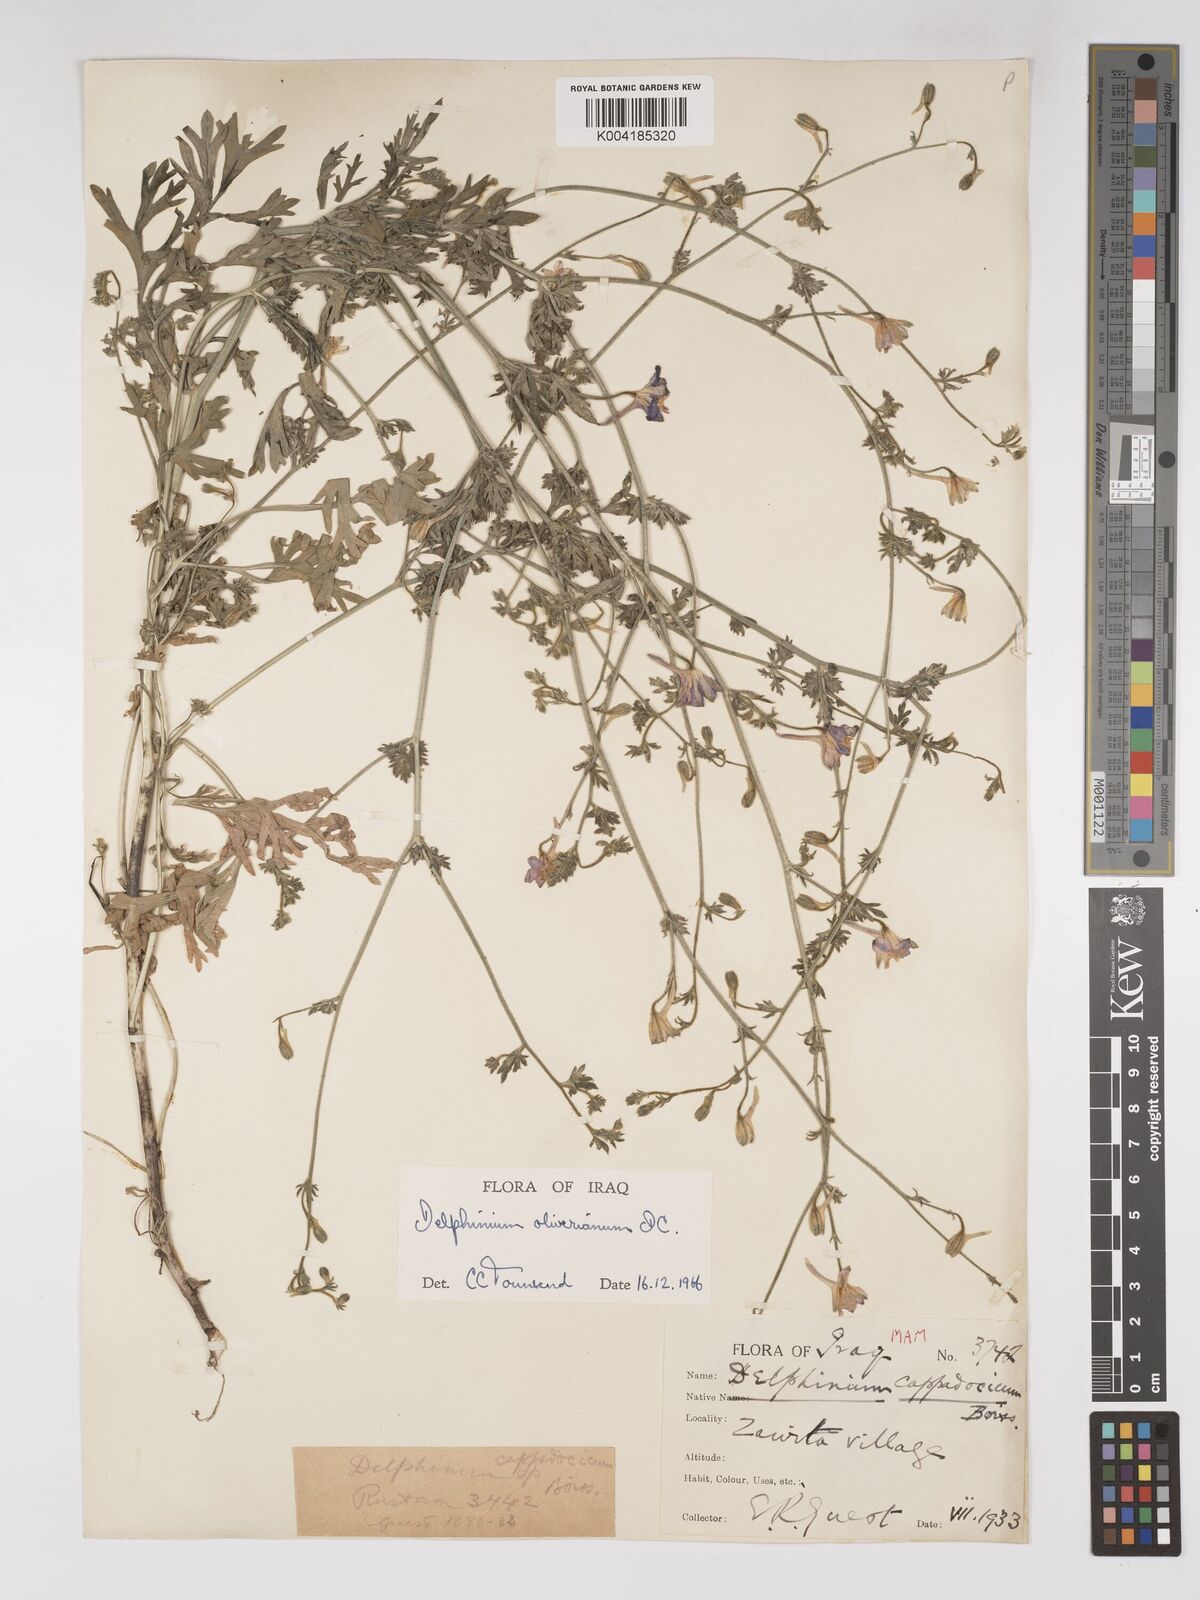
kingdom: Plantae
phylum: Tracheophyta
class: Magnoliopsida
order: Ranunculales
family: Ranunculaceae
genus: Delphinium
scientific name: Delphinium oliverianum
